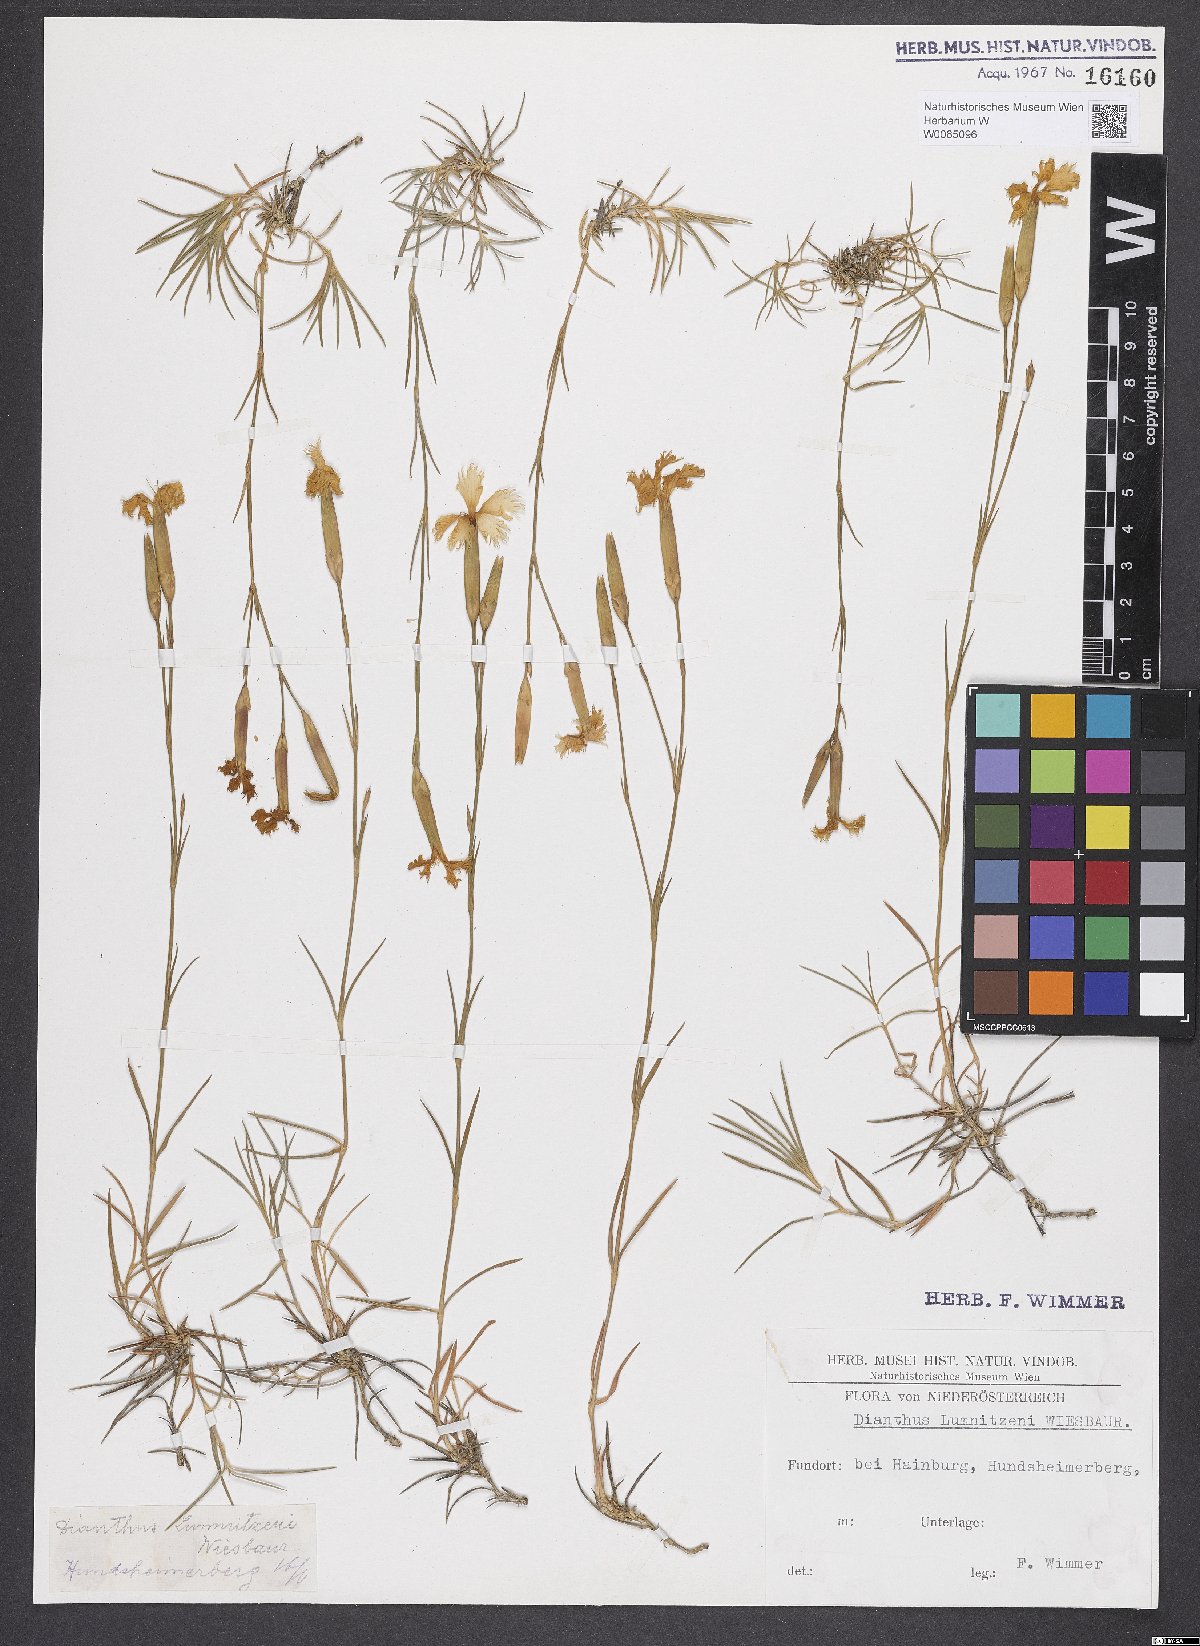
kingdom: Plantae
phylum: Tracheophyta
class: Magnoliopsida
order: Caryophyllales
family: Caryophyllaceae
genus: Dianthus
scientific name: Dianthus praecox
